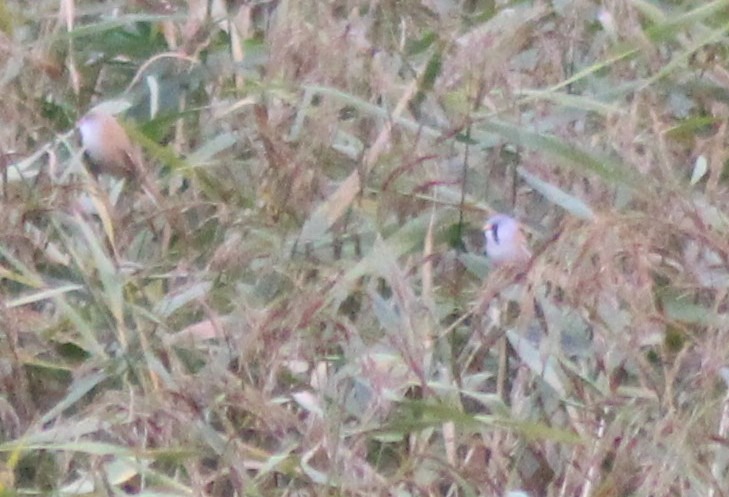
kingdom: Animalia
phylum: Chordata
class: Aves
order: Passeriformes
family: Panuridae
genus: Panurus
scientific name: Panurus biarmicus
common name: Skægmejse
